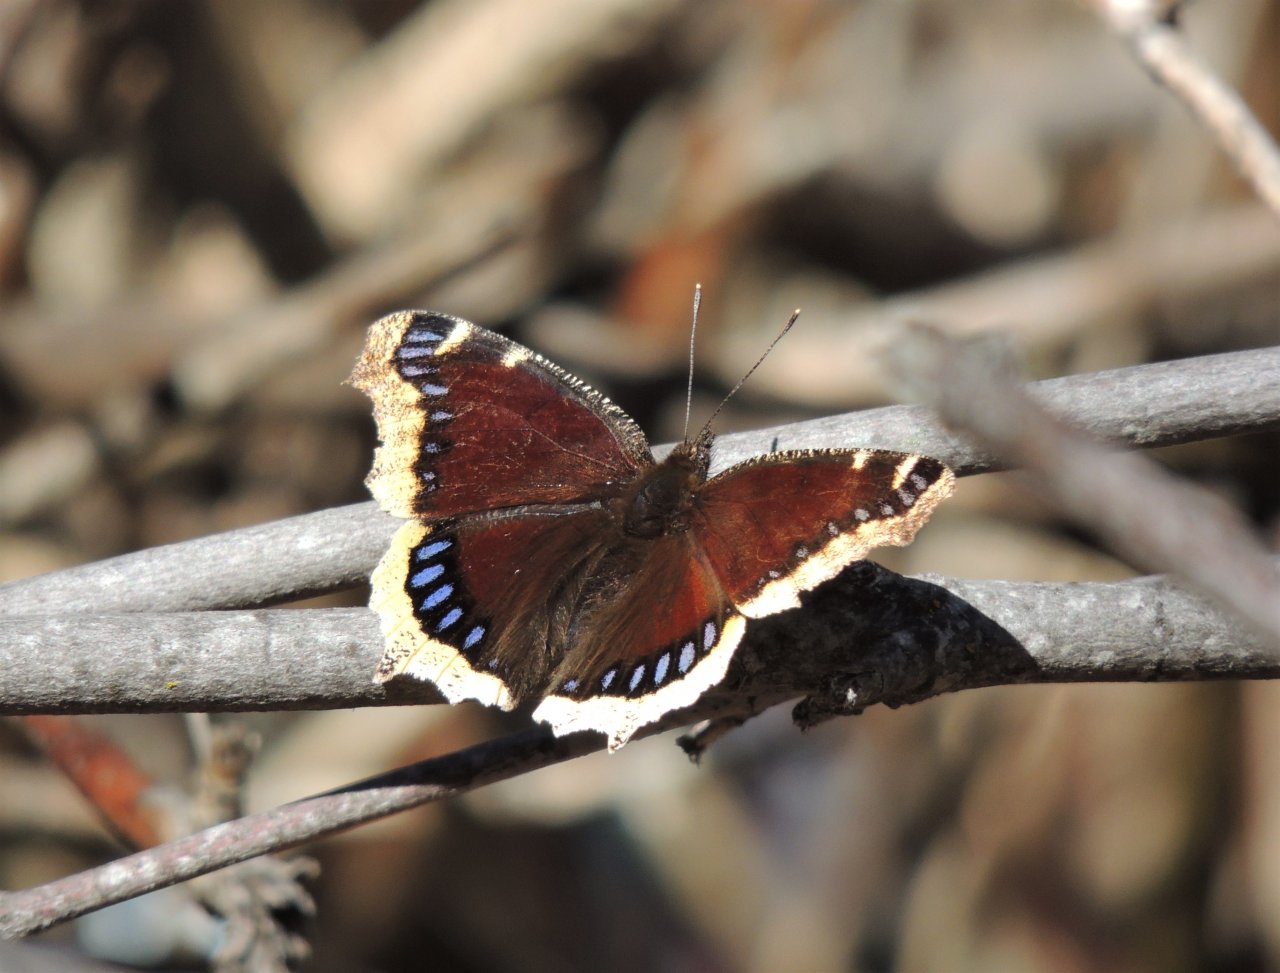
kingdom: Animalia
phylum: Arthropoda
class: Insecta
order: Lepidoptera
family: Nymphalidae
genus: Nymphalis
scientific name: Nymphalis antiopa
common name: Mourning Cloak
